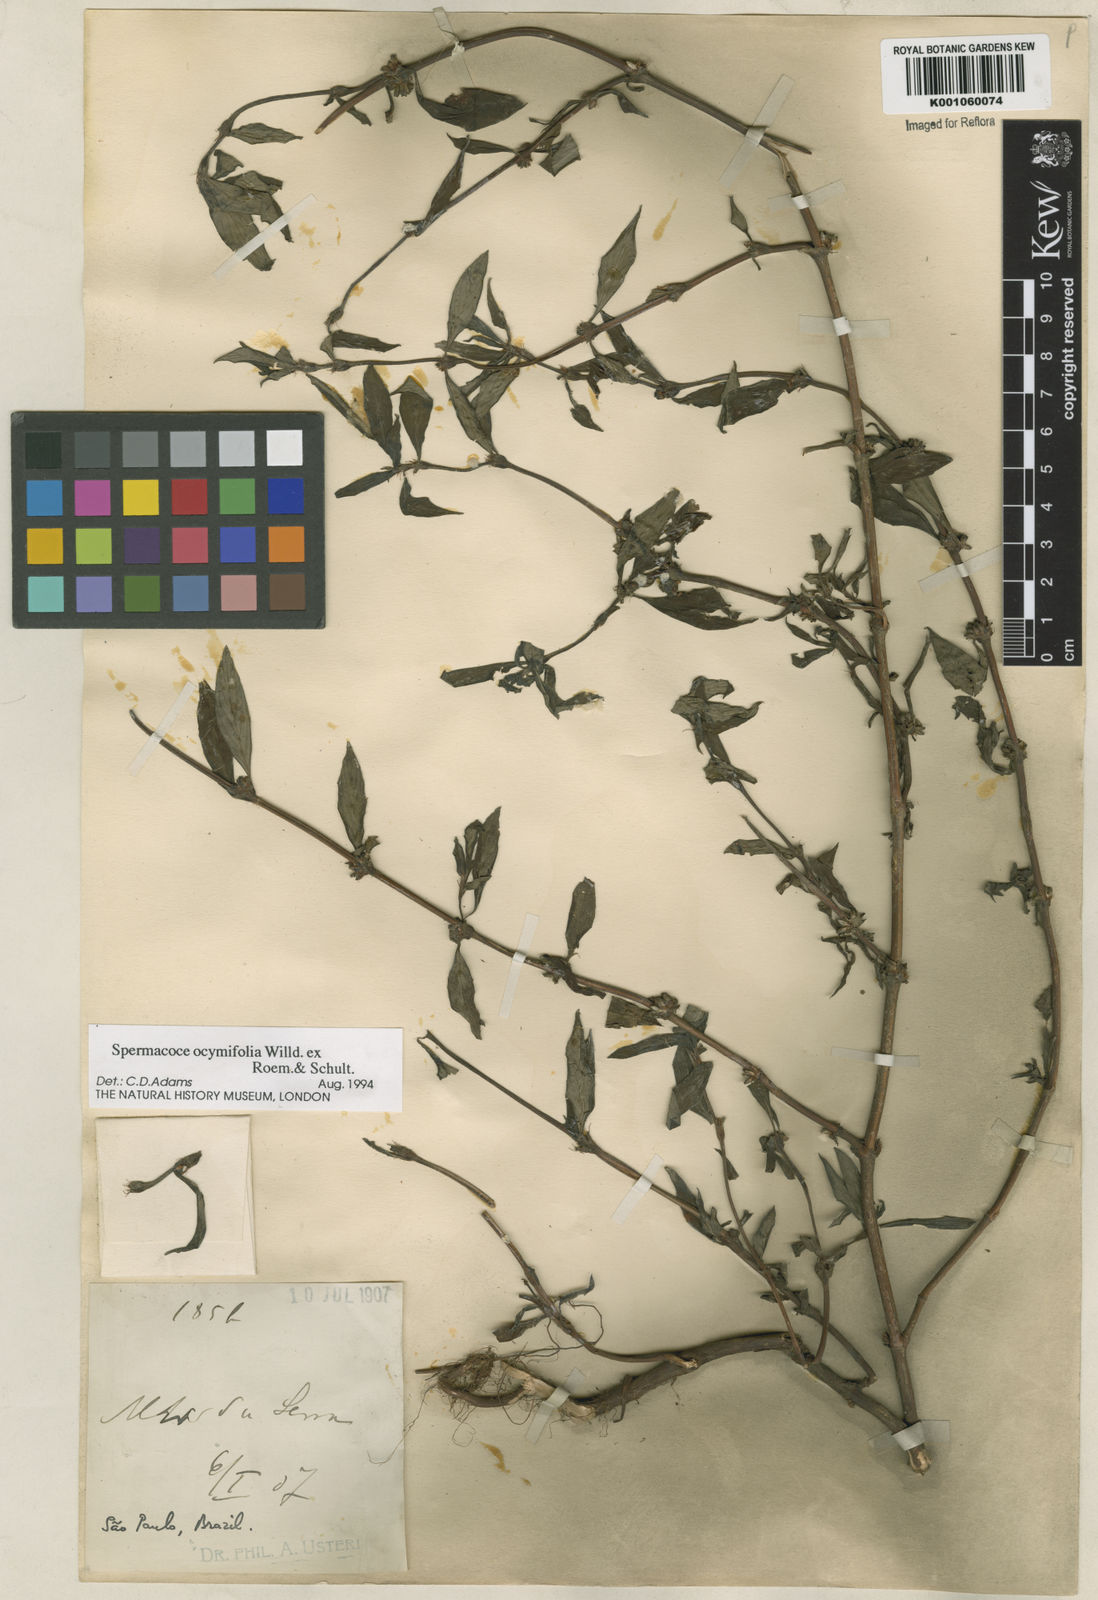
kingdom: Plantae
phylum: Tracheophyta
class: Magnoliopsida
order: Gentianales
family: Rubiaceae
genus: Spermacoce
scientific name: Spermacoce
